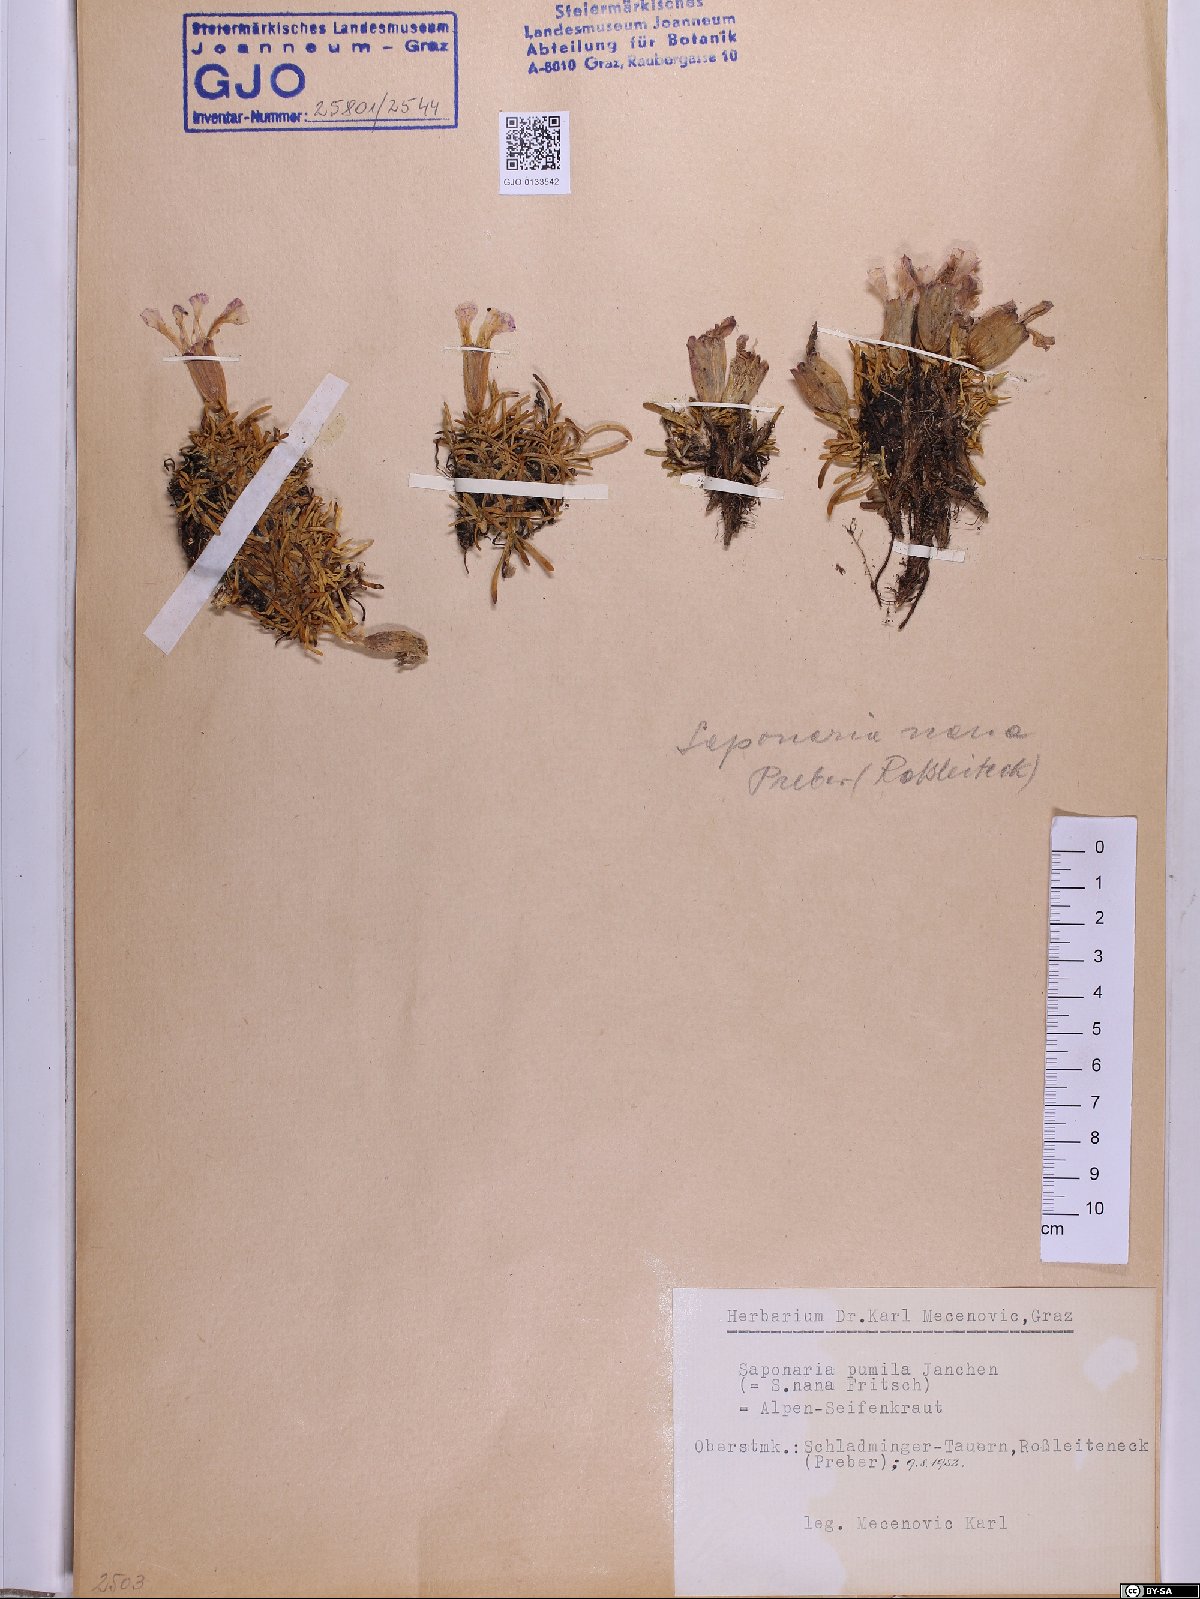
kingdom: Plantae
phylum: Tracheophyta
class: Magnoliopsida
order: Caryophyllales
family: Caryophyllaceae
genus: Saponaria
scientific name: Saponaria pumila
